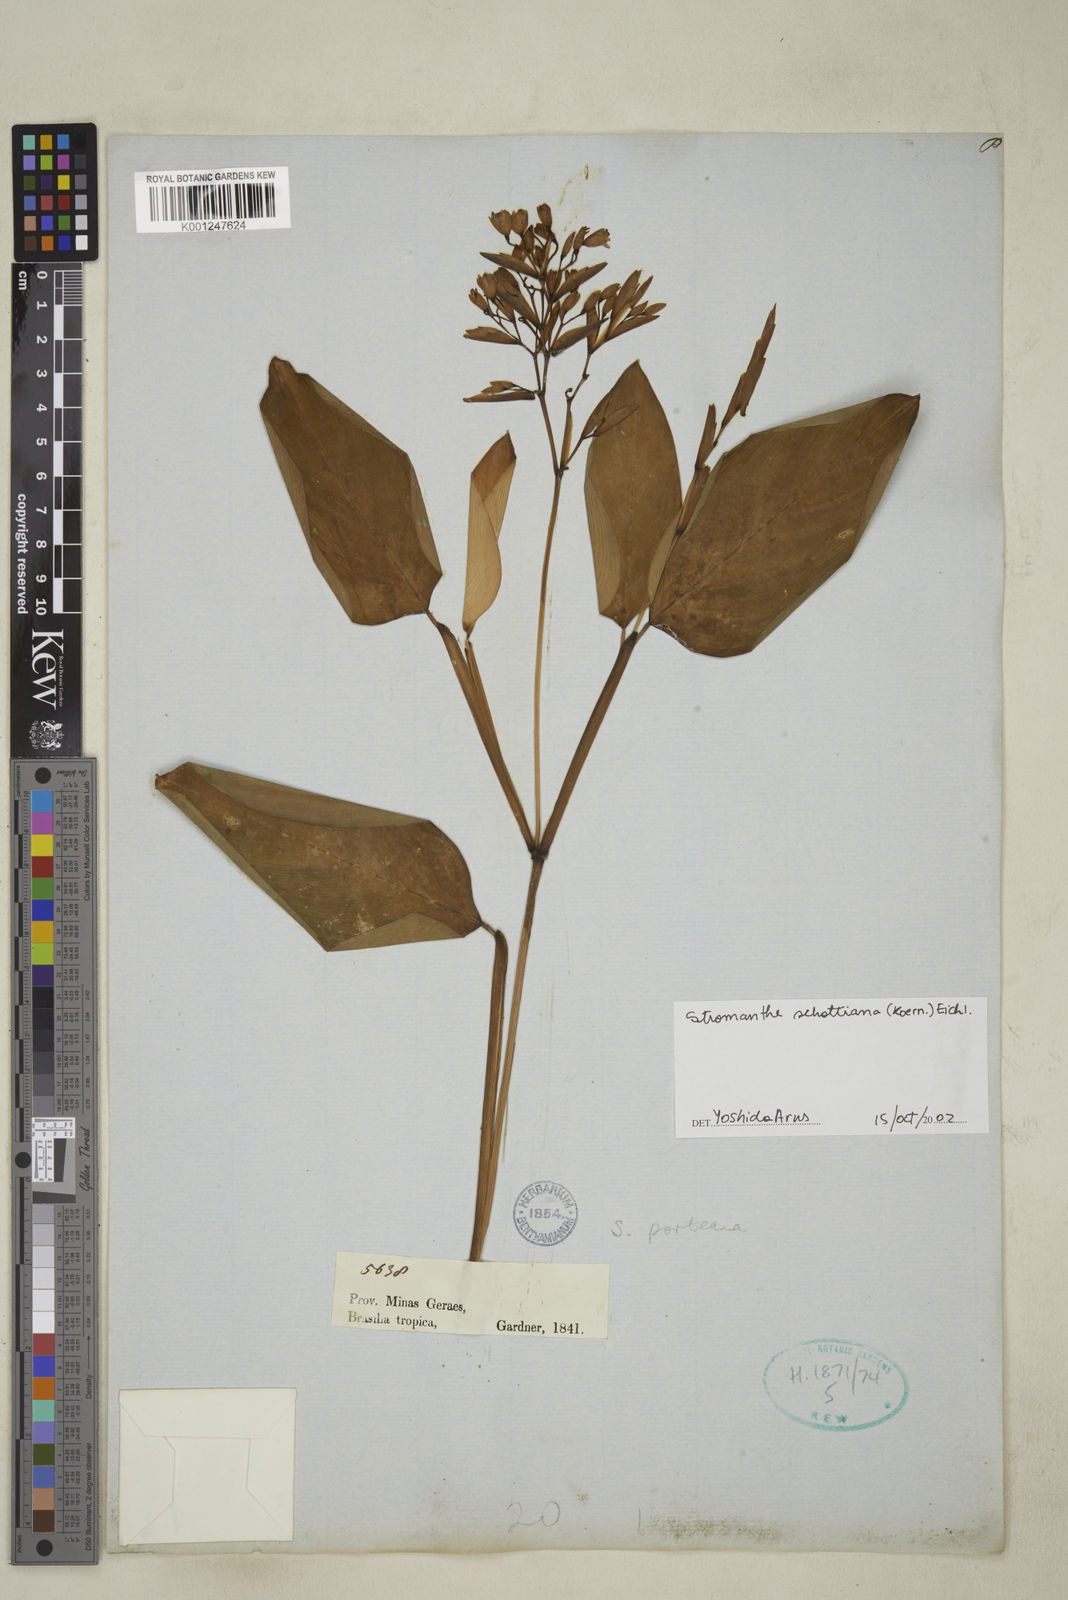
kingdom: Plantae
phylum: Tracheophyta
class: Liliopsida
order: Zingiberales
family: Marantaceae
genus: Stromanthe
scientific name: Stromanthe schottiana
